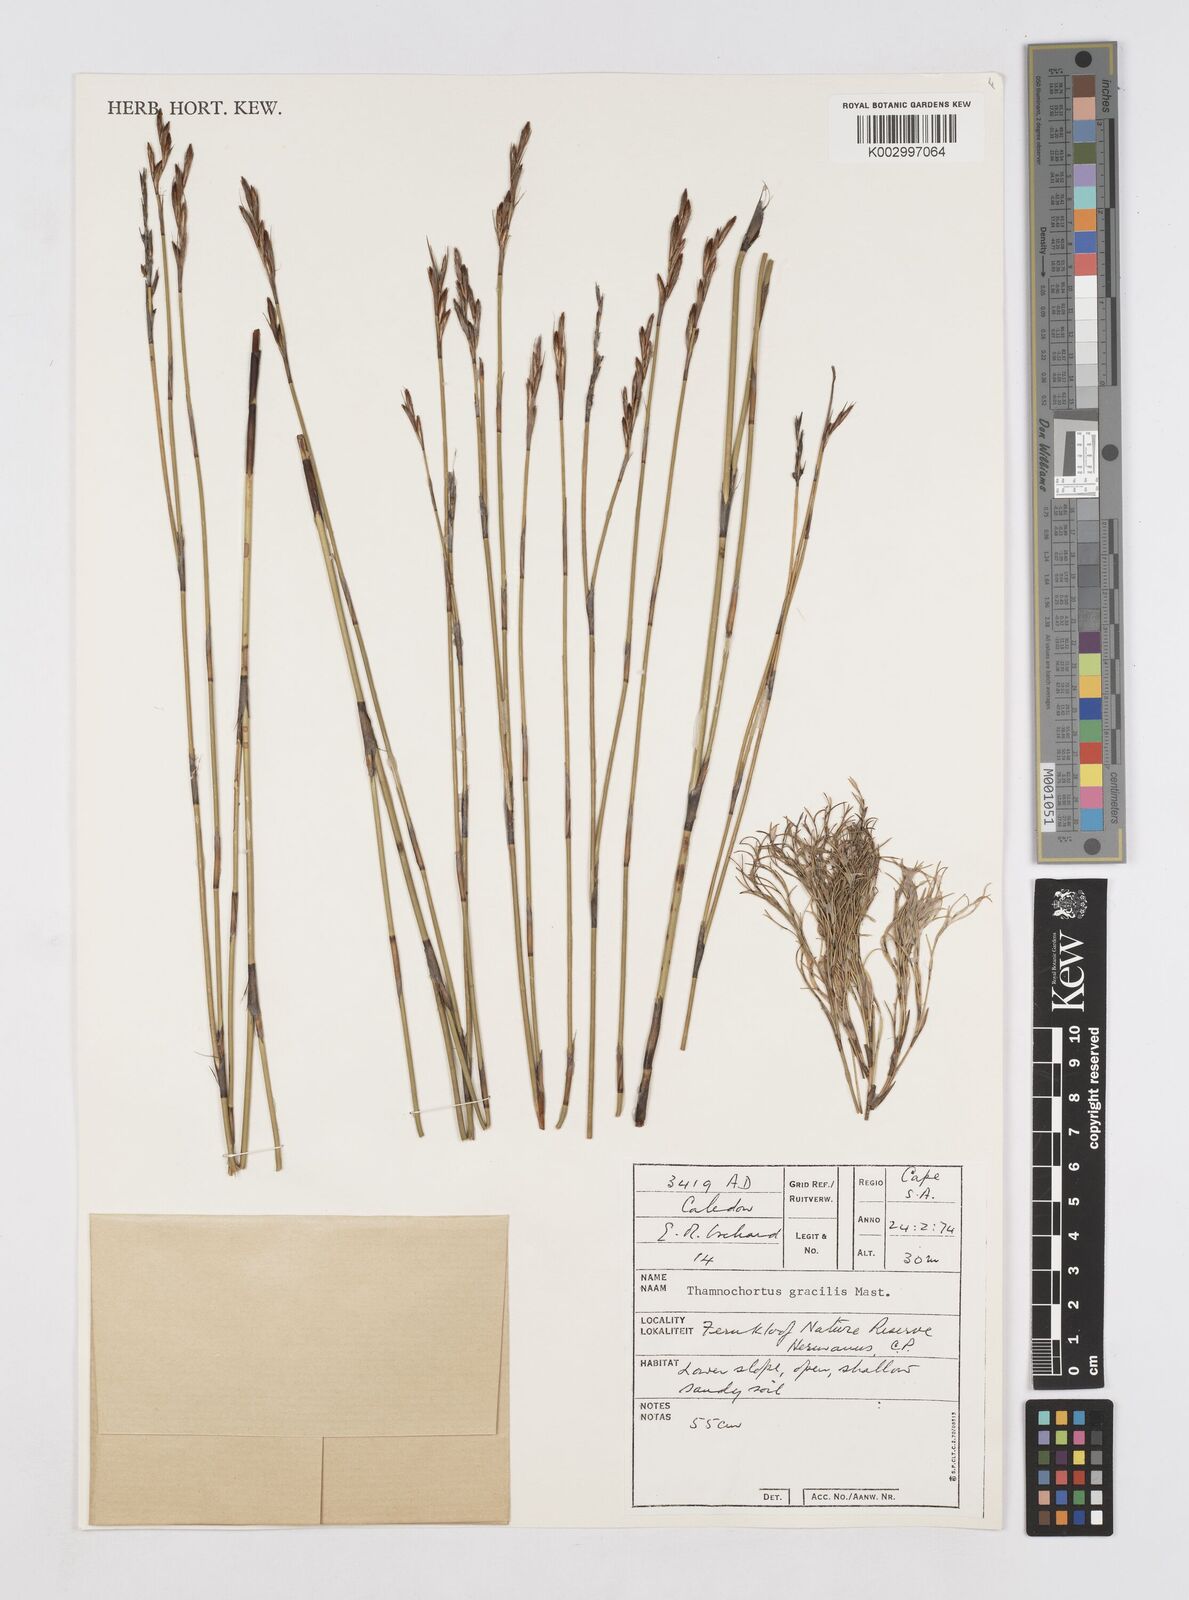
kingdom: Plantae
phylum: Tracheophyta
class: Liliopsida
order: Poales
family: Restionaceae
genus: Thamnochortus
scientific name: Thamnochortus gracilis
